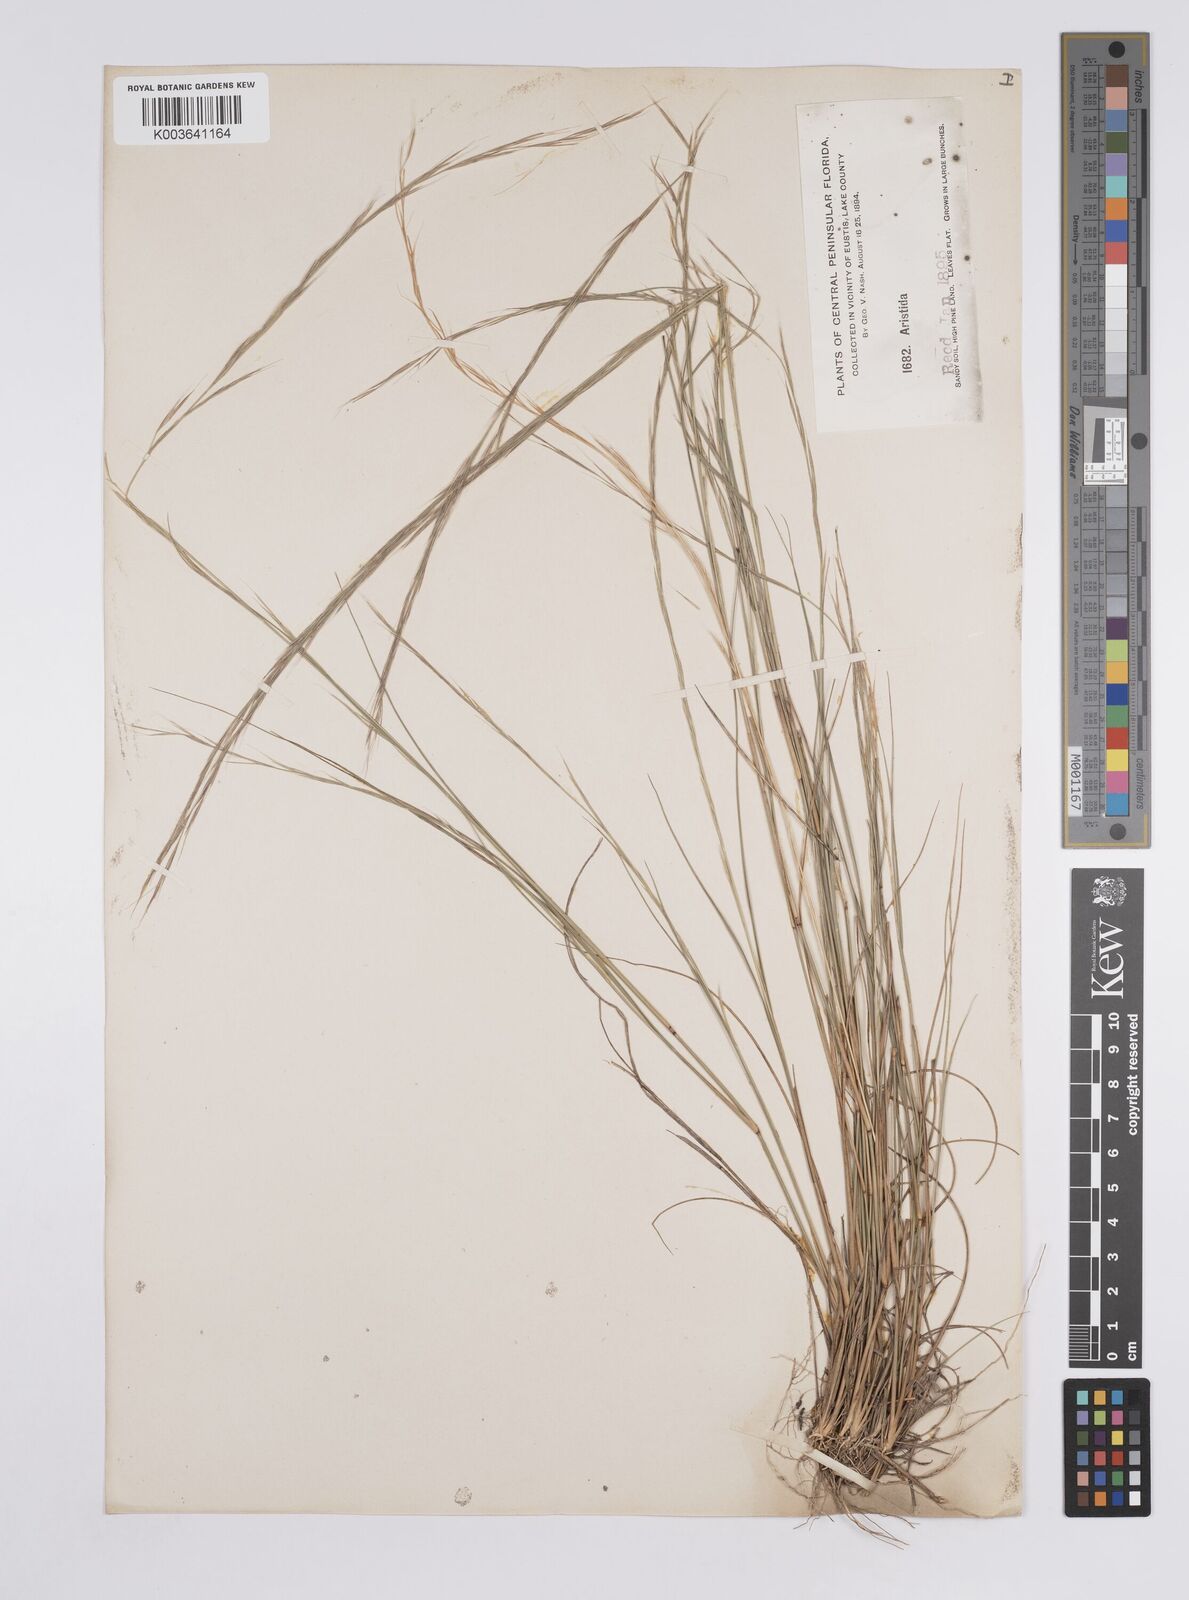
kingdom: Plantae
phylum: Tracheophyta
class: Liliopsida
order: Poales
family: Poaceae
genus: Aristida
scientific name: Aristida
